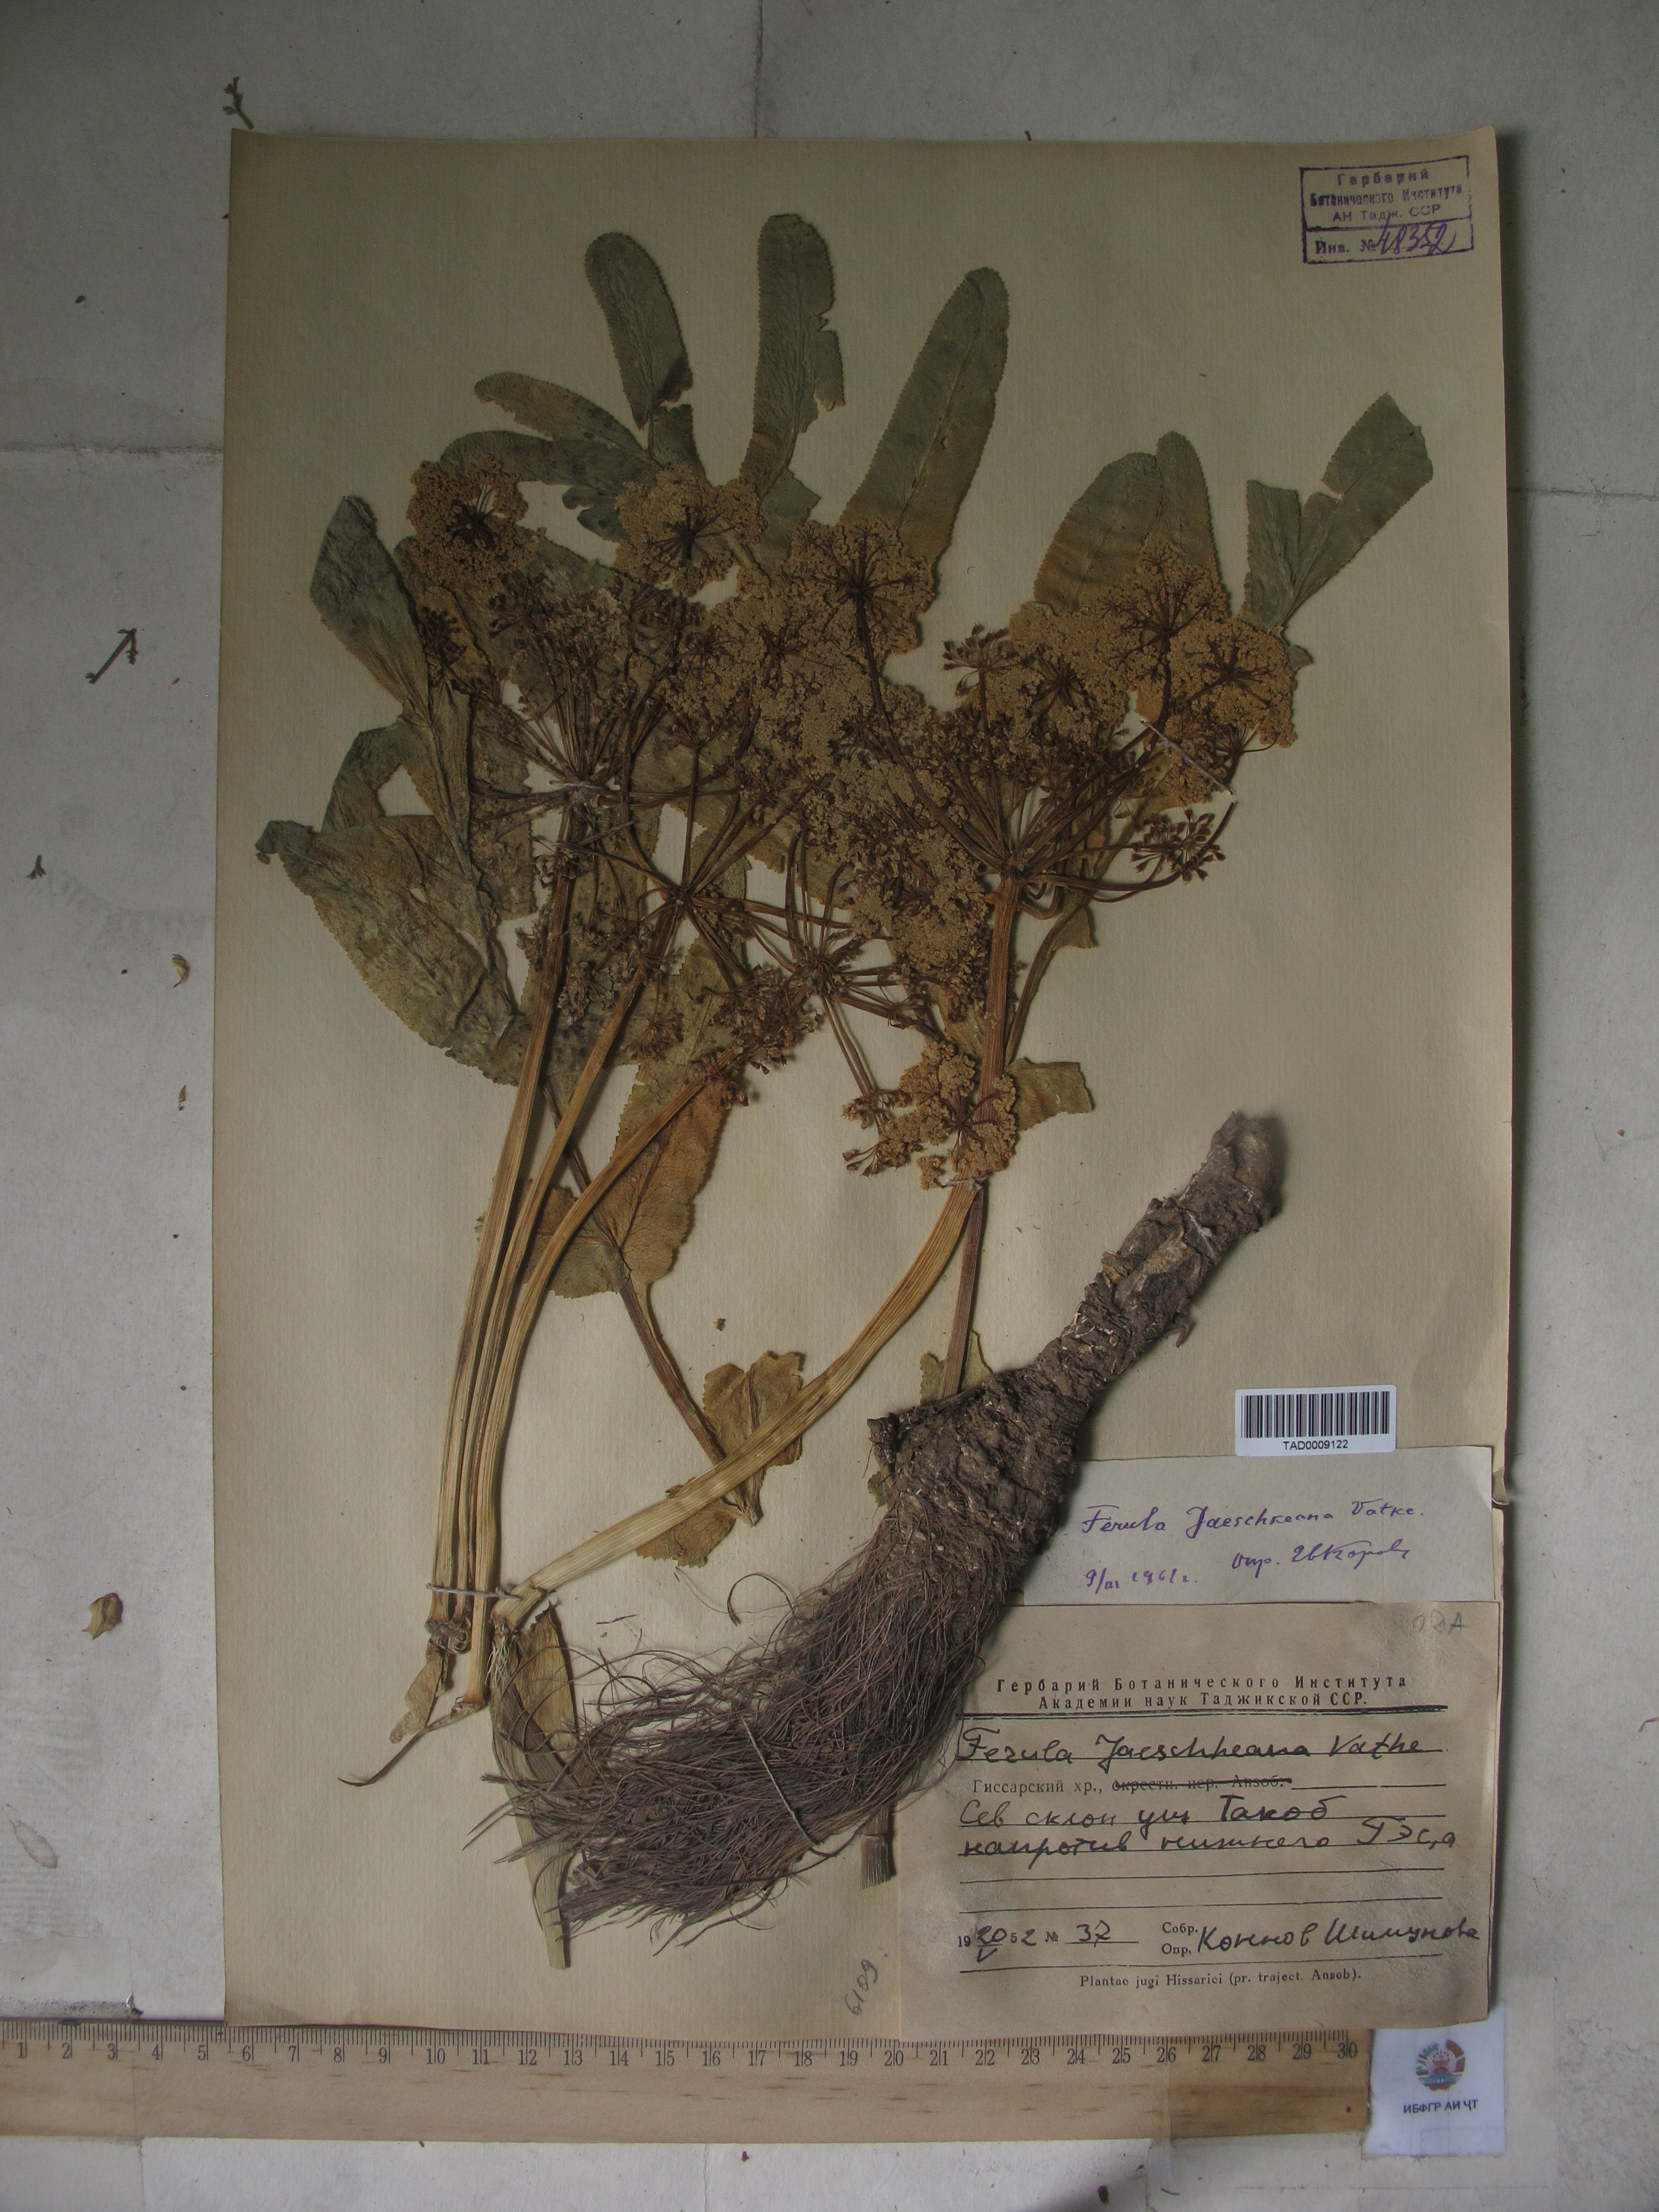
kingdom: Plantae
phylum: Tracheophyta
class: Magnoliopsida
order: Apiales
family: Apiaceae
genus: Ferula
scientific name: Ferula jaeschkeana
